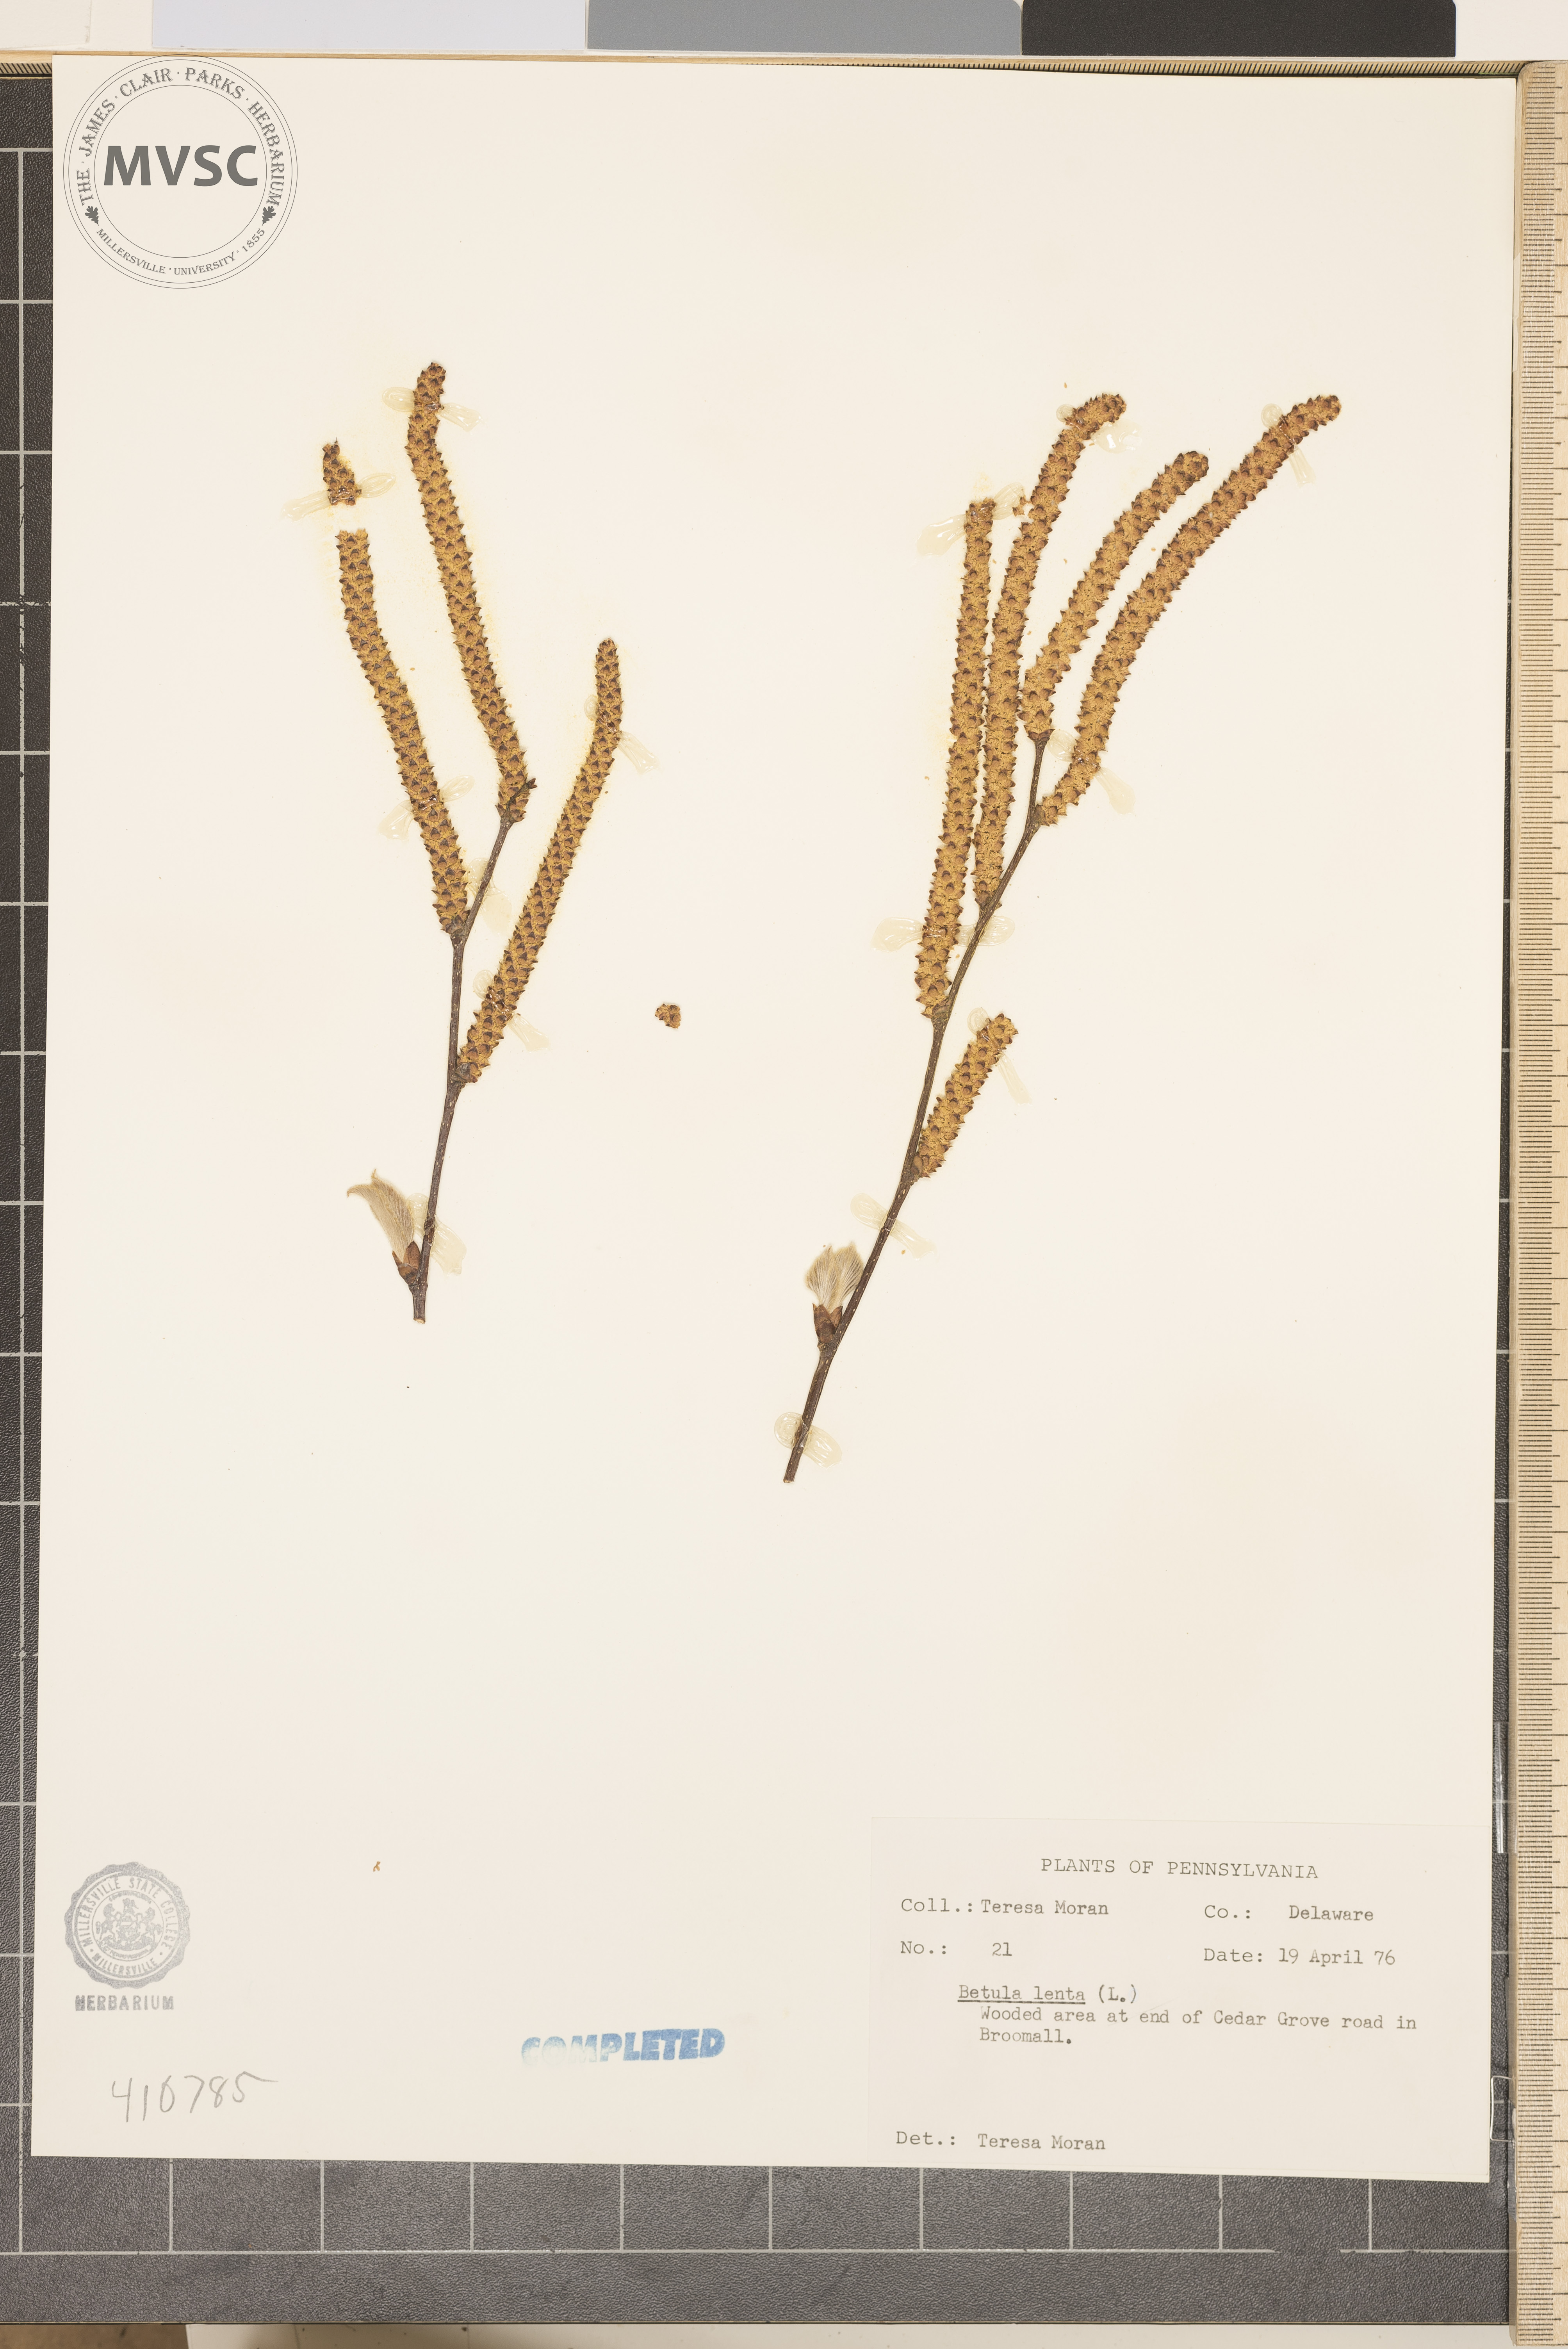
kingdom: Plantae
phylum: Tracheophyta
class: Magnoliopsida
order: Fagales
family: Betulaceae
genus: Betula
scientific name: Betula lenta
